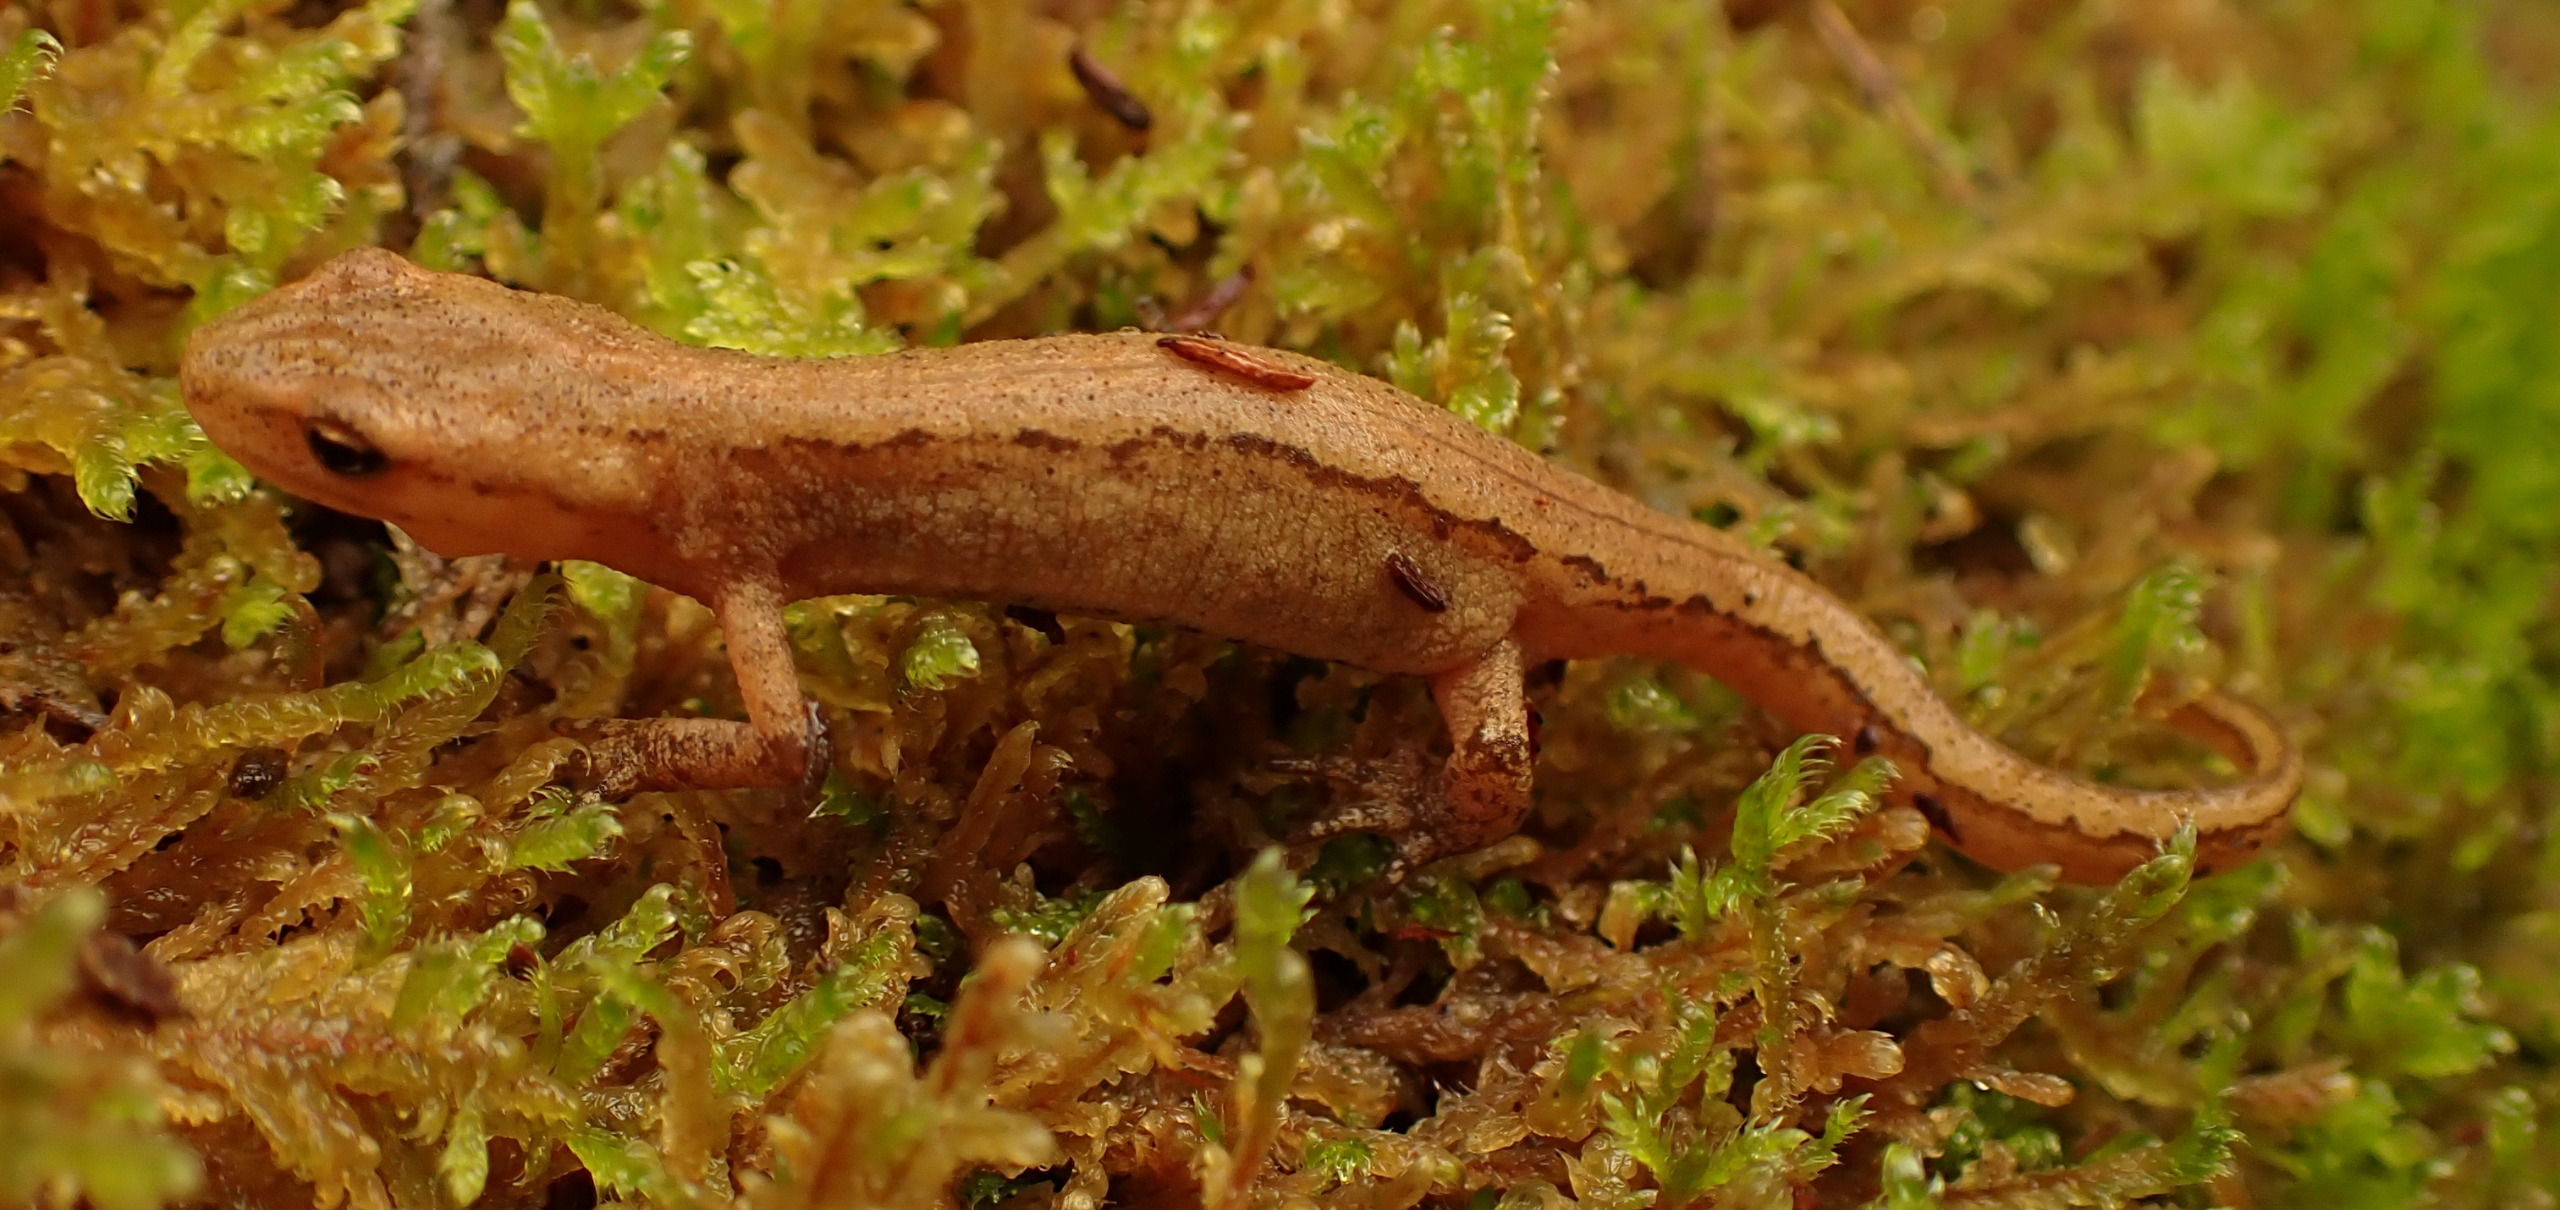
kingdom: Animalia
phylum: Chordata
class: Amphibia
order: Caudata
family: Salamandridae
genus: Lissotriton
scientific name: Lissotriton vulgaris
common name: Lille vandsalamander
